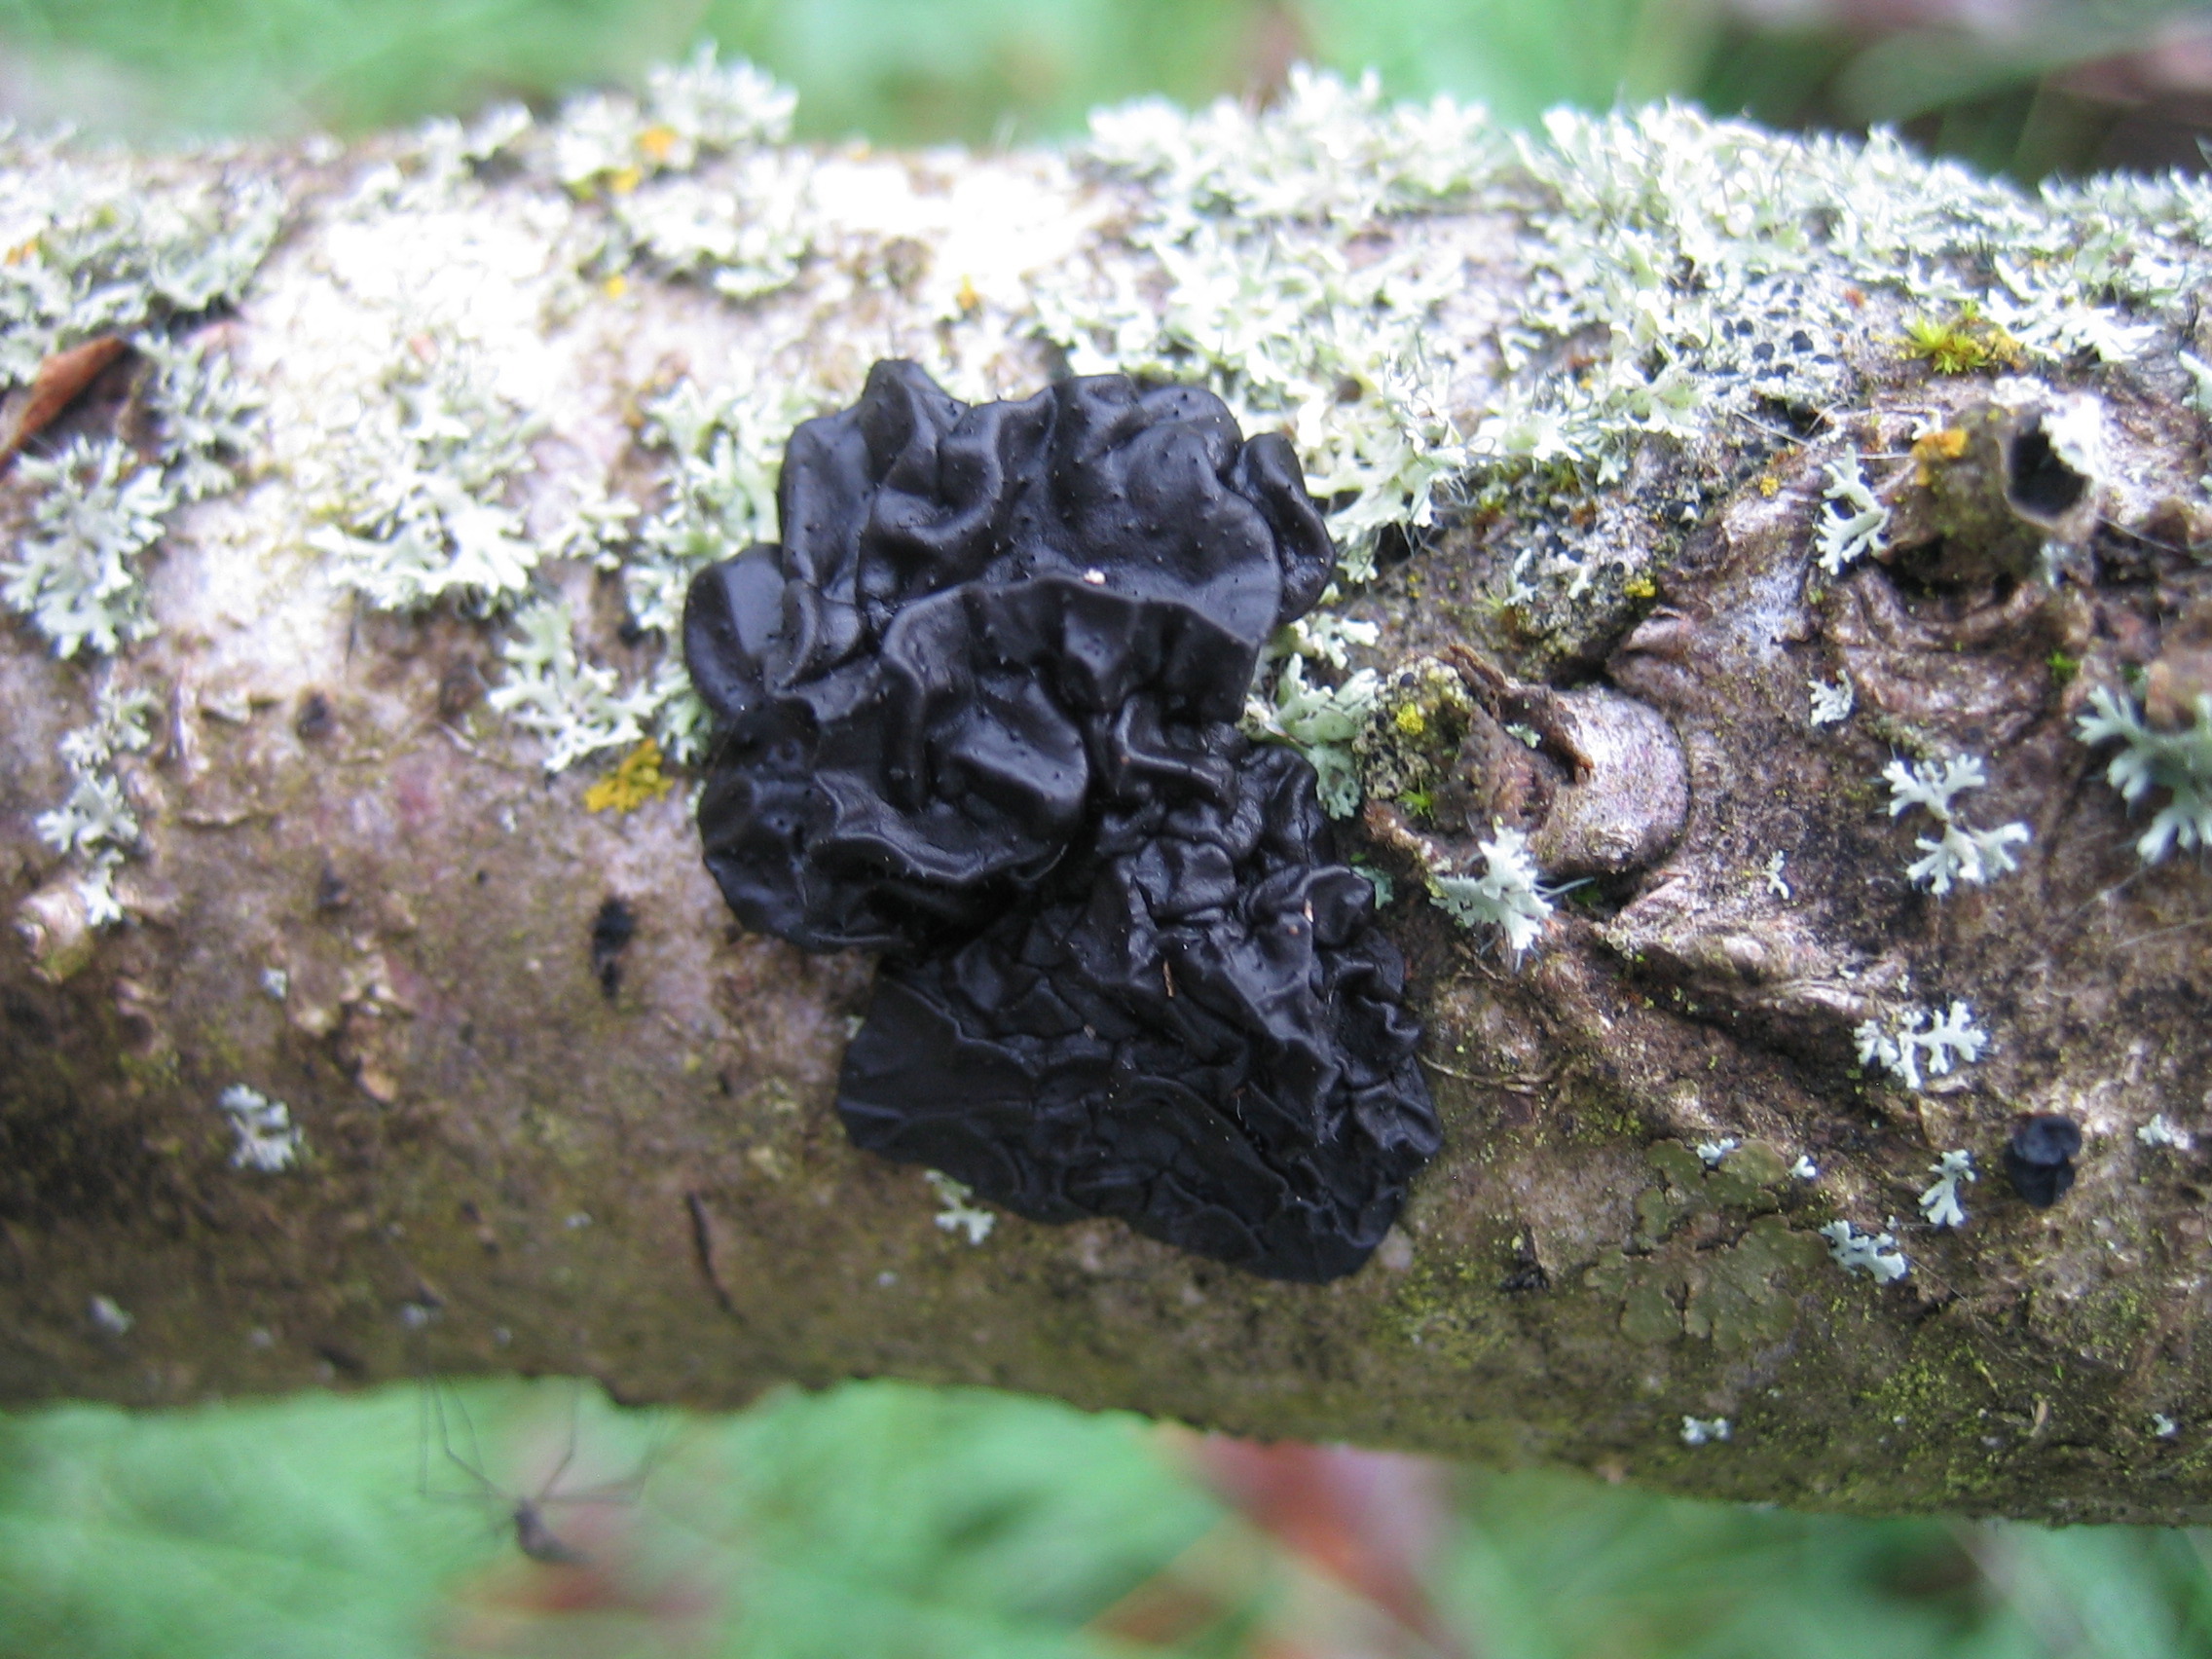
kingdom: Fungi
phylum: Basidiomycota
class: Agaricomycetes
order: Auriculariales
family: Auriculariaceae
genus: Exidia
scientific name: Exidia glandulosa
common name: ege-bævretop
